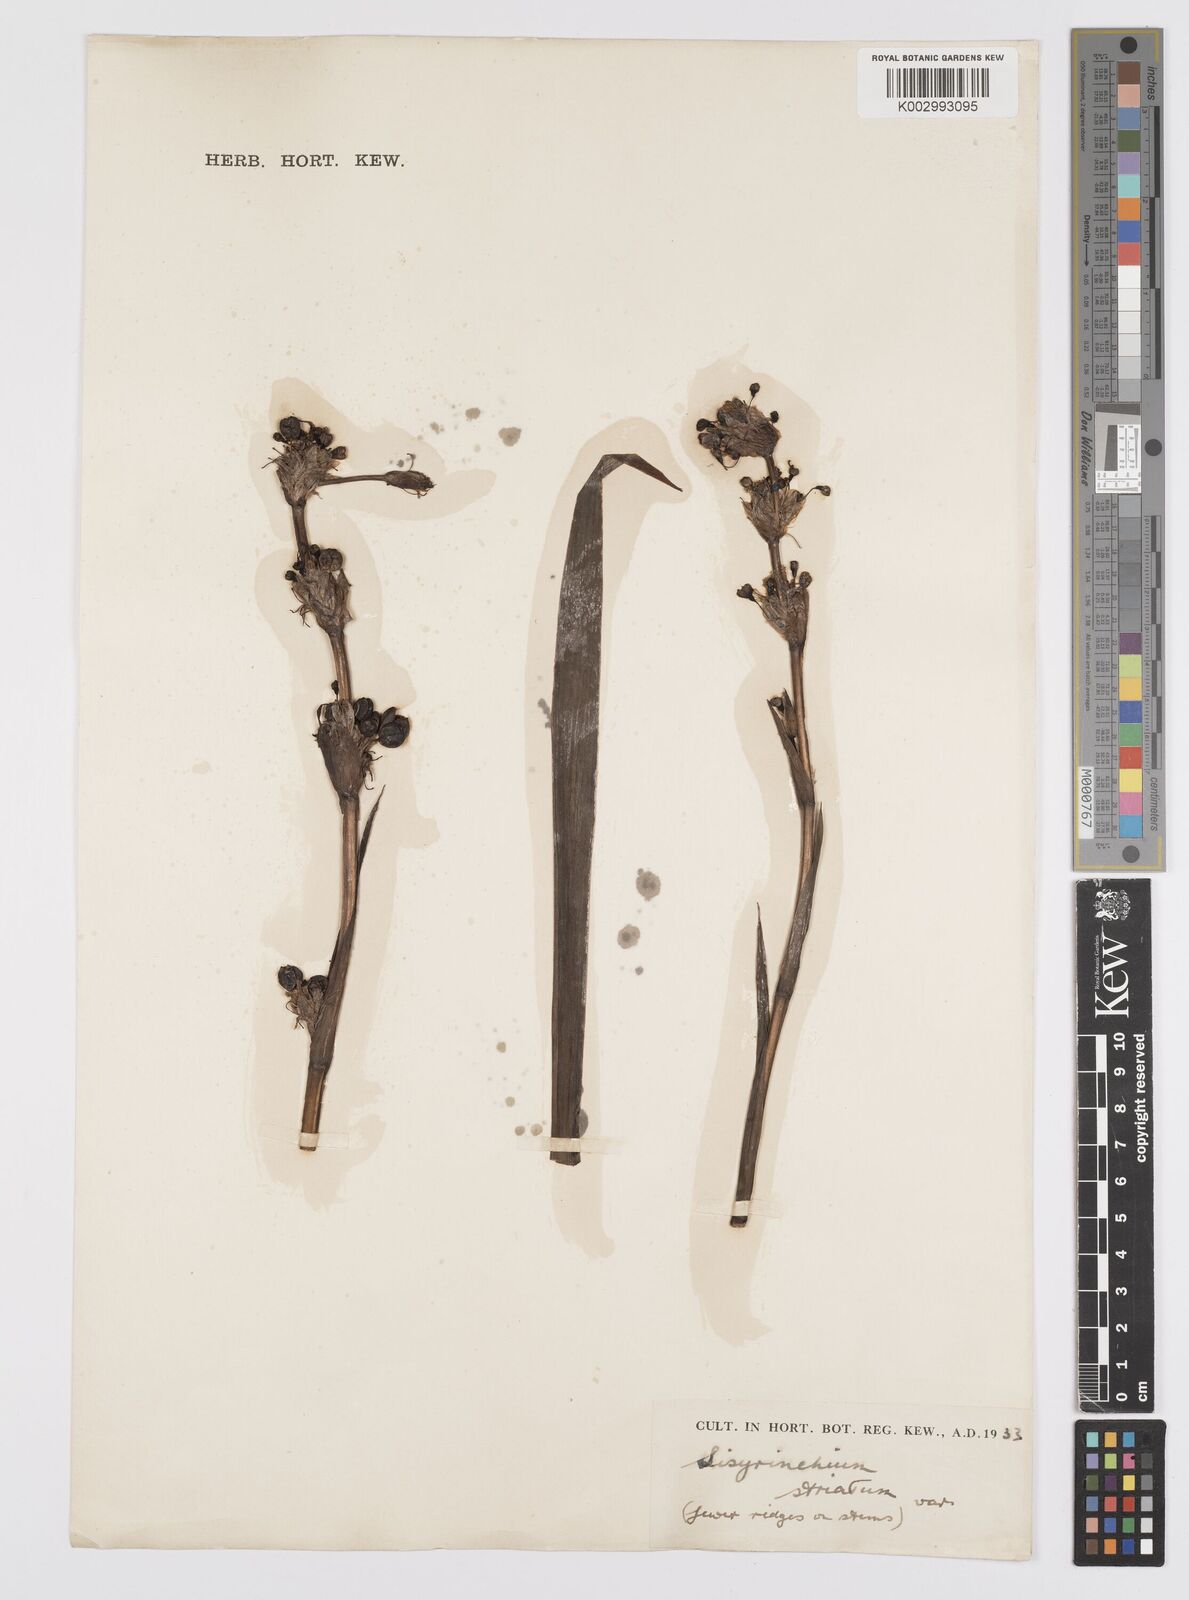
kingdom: Plantae
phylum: Tracheophyta
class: Liliopsida
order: Asparagales
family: Iridaceae
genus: Sisyrinchium
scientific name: Sisyrinchium striatum
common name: Pale yellow-eyed-grass
